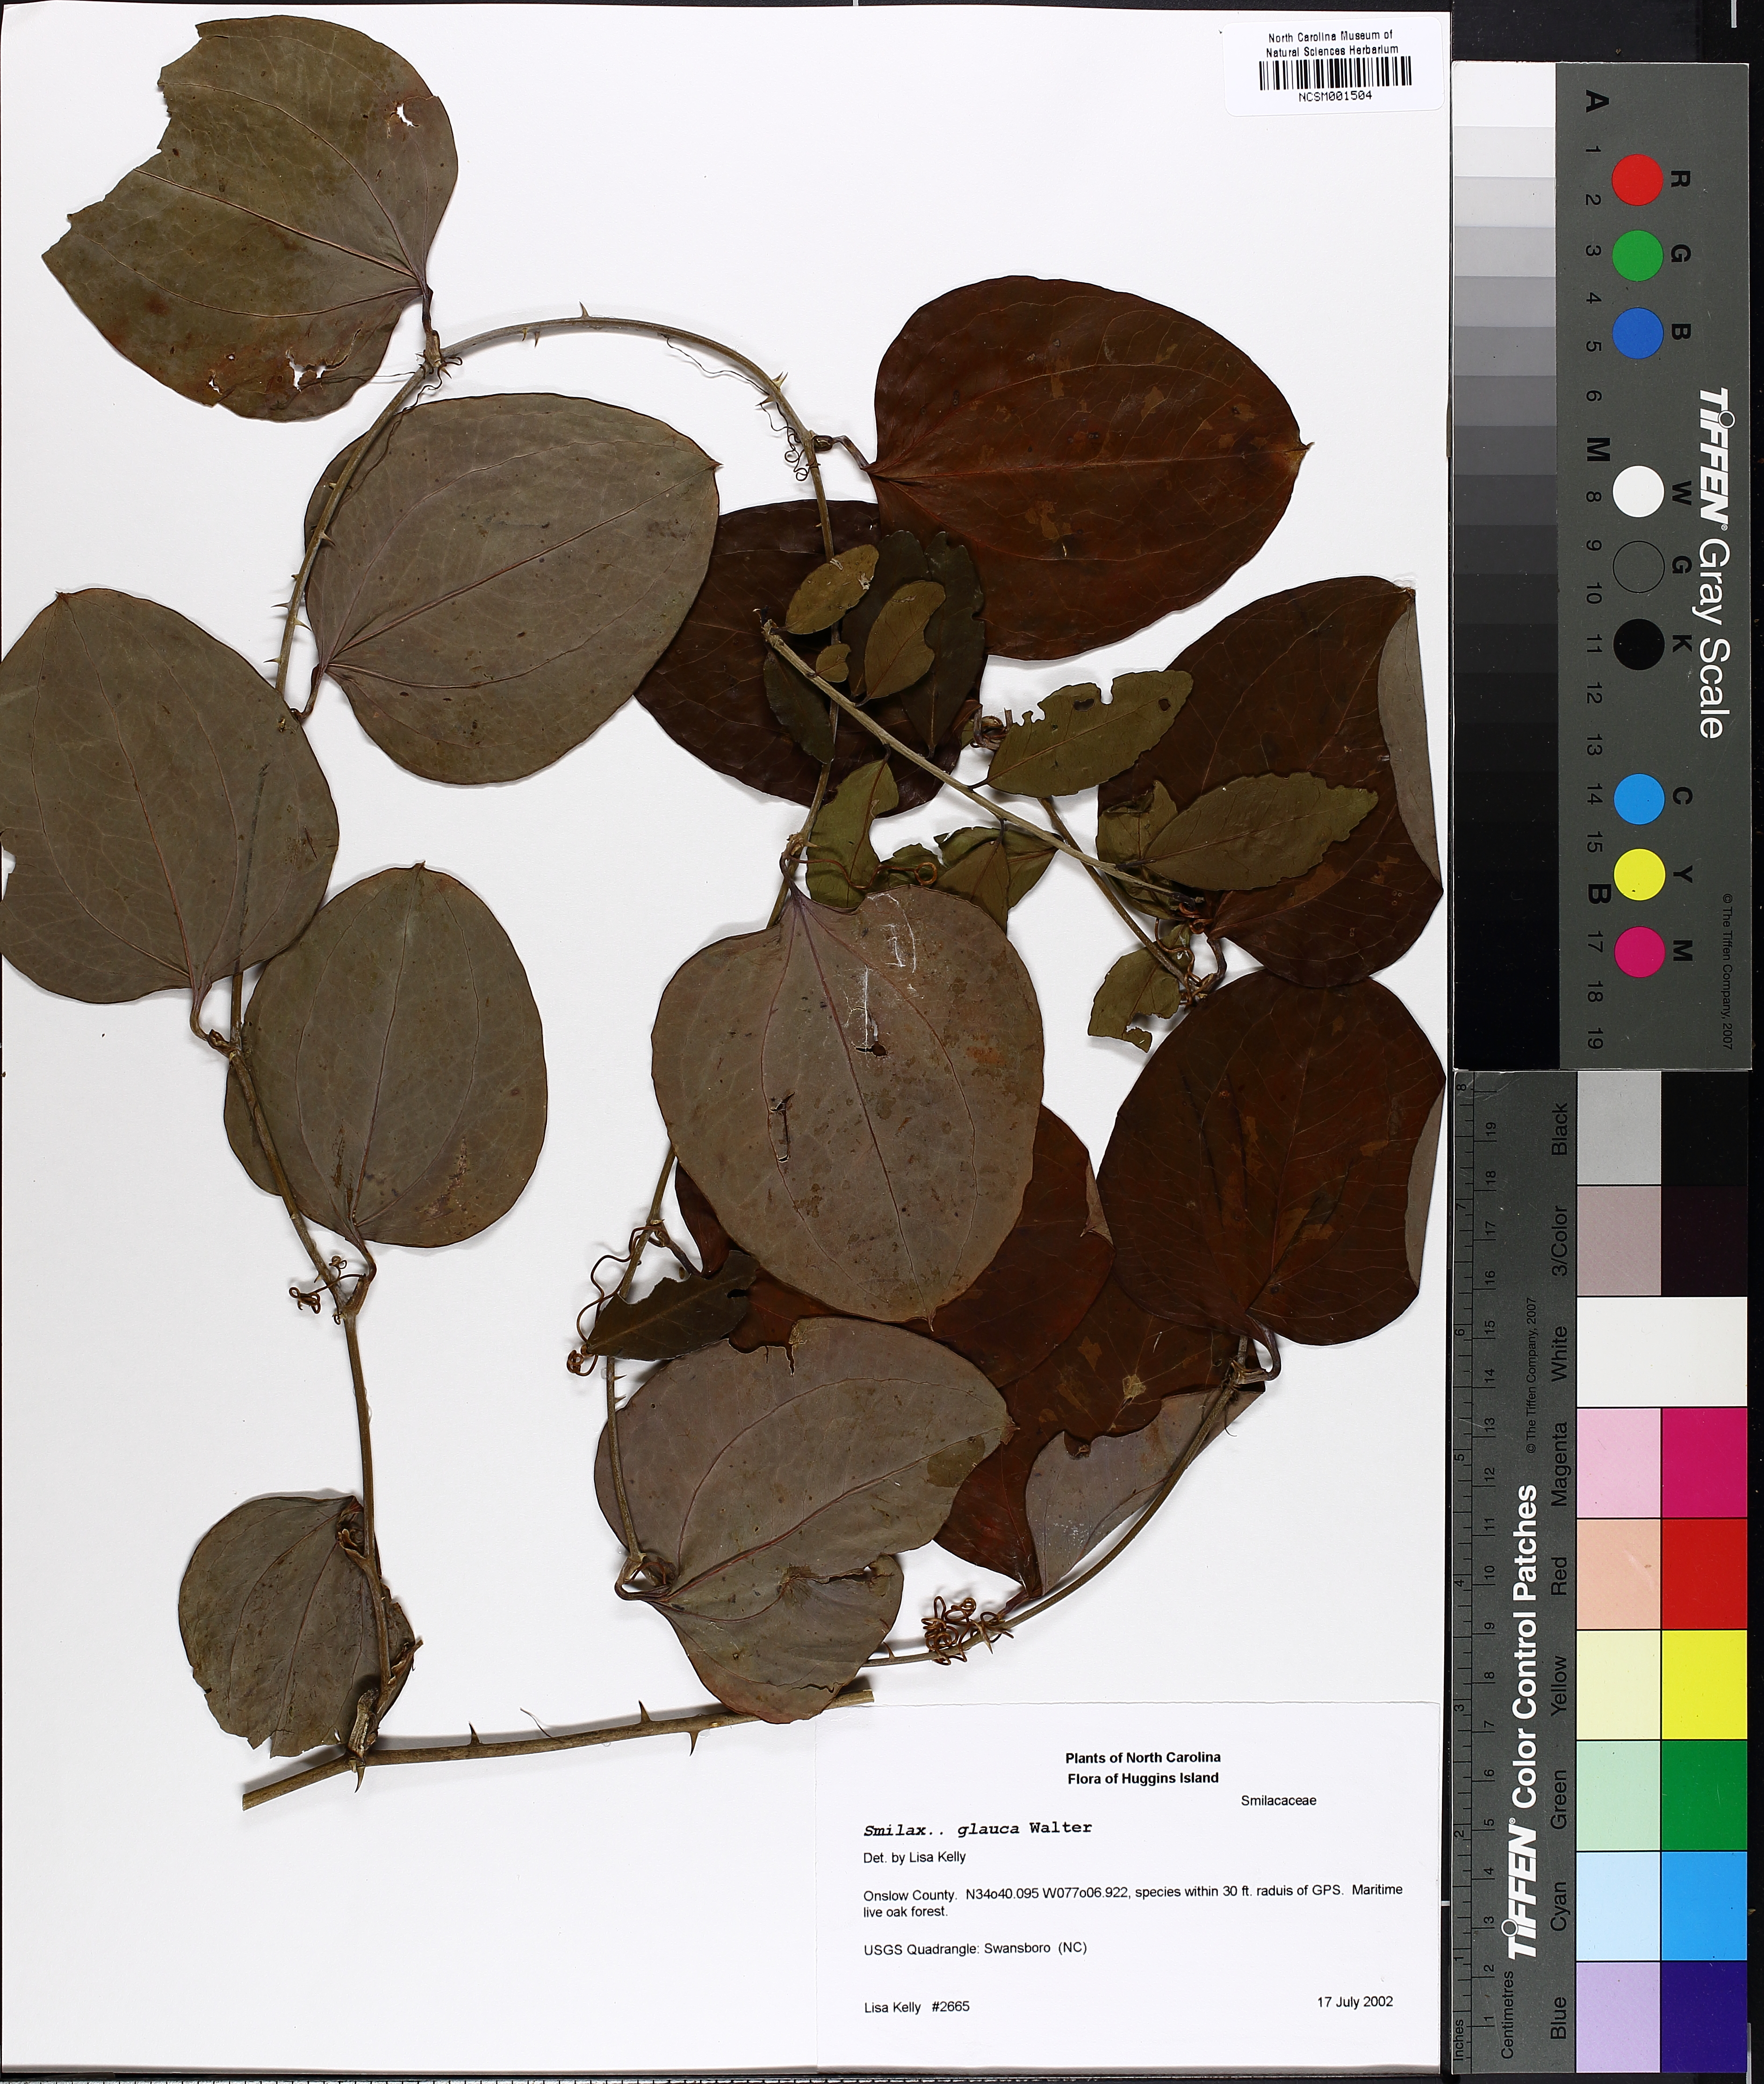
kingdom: Plantae
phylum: Tracheophyta
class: Liliopsida
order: Liliales
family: Smilacaceae
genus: Smilax
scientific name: Smilax glauca
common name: Cat greenbrier
